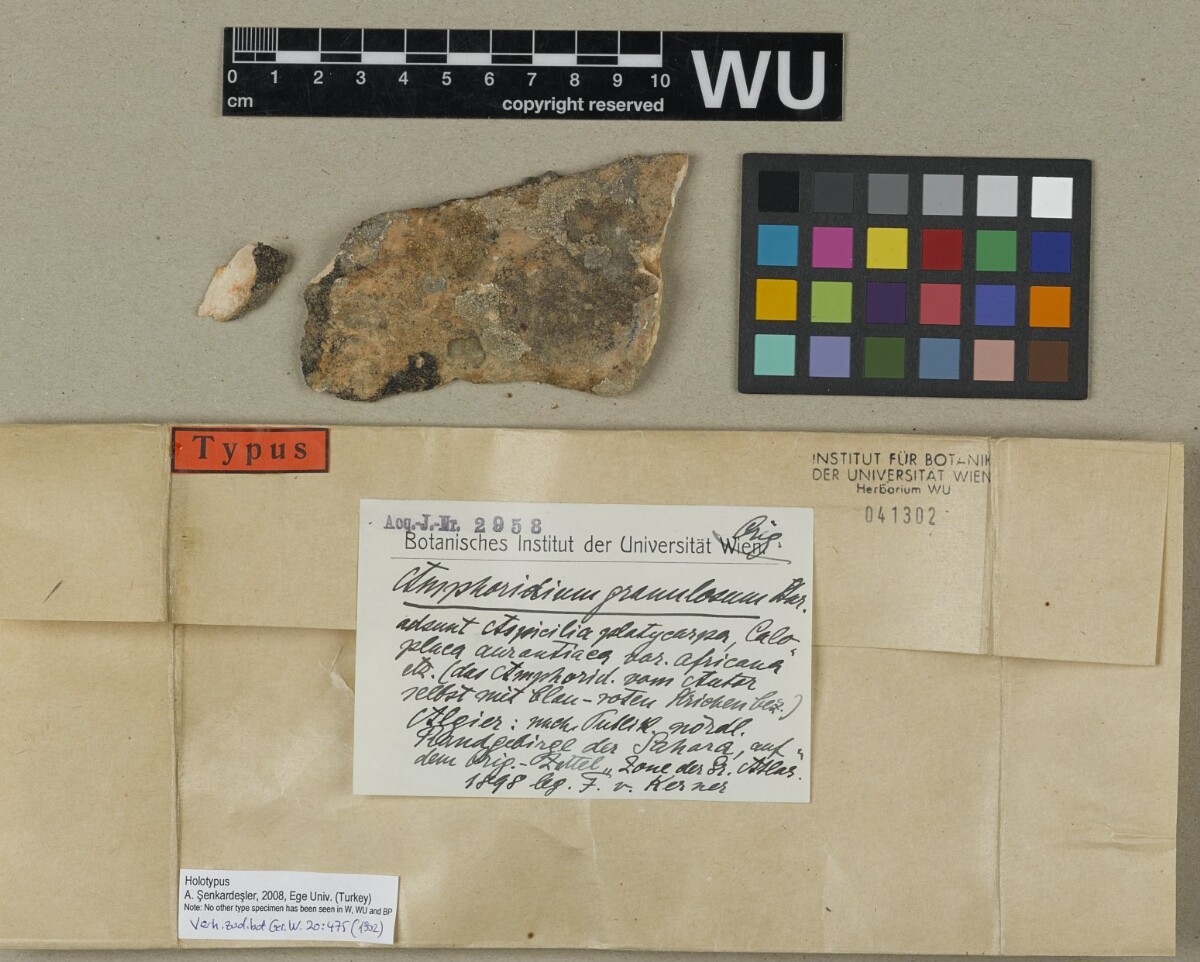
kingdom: Fungi
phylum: Ascomycota
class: Eurotiomycetes
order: Verrucariales
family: Verrucariaceae
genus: Verrucaria
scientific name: Verrucaria
